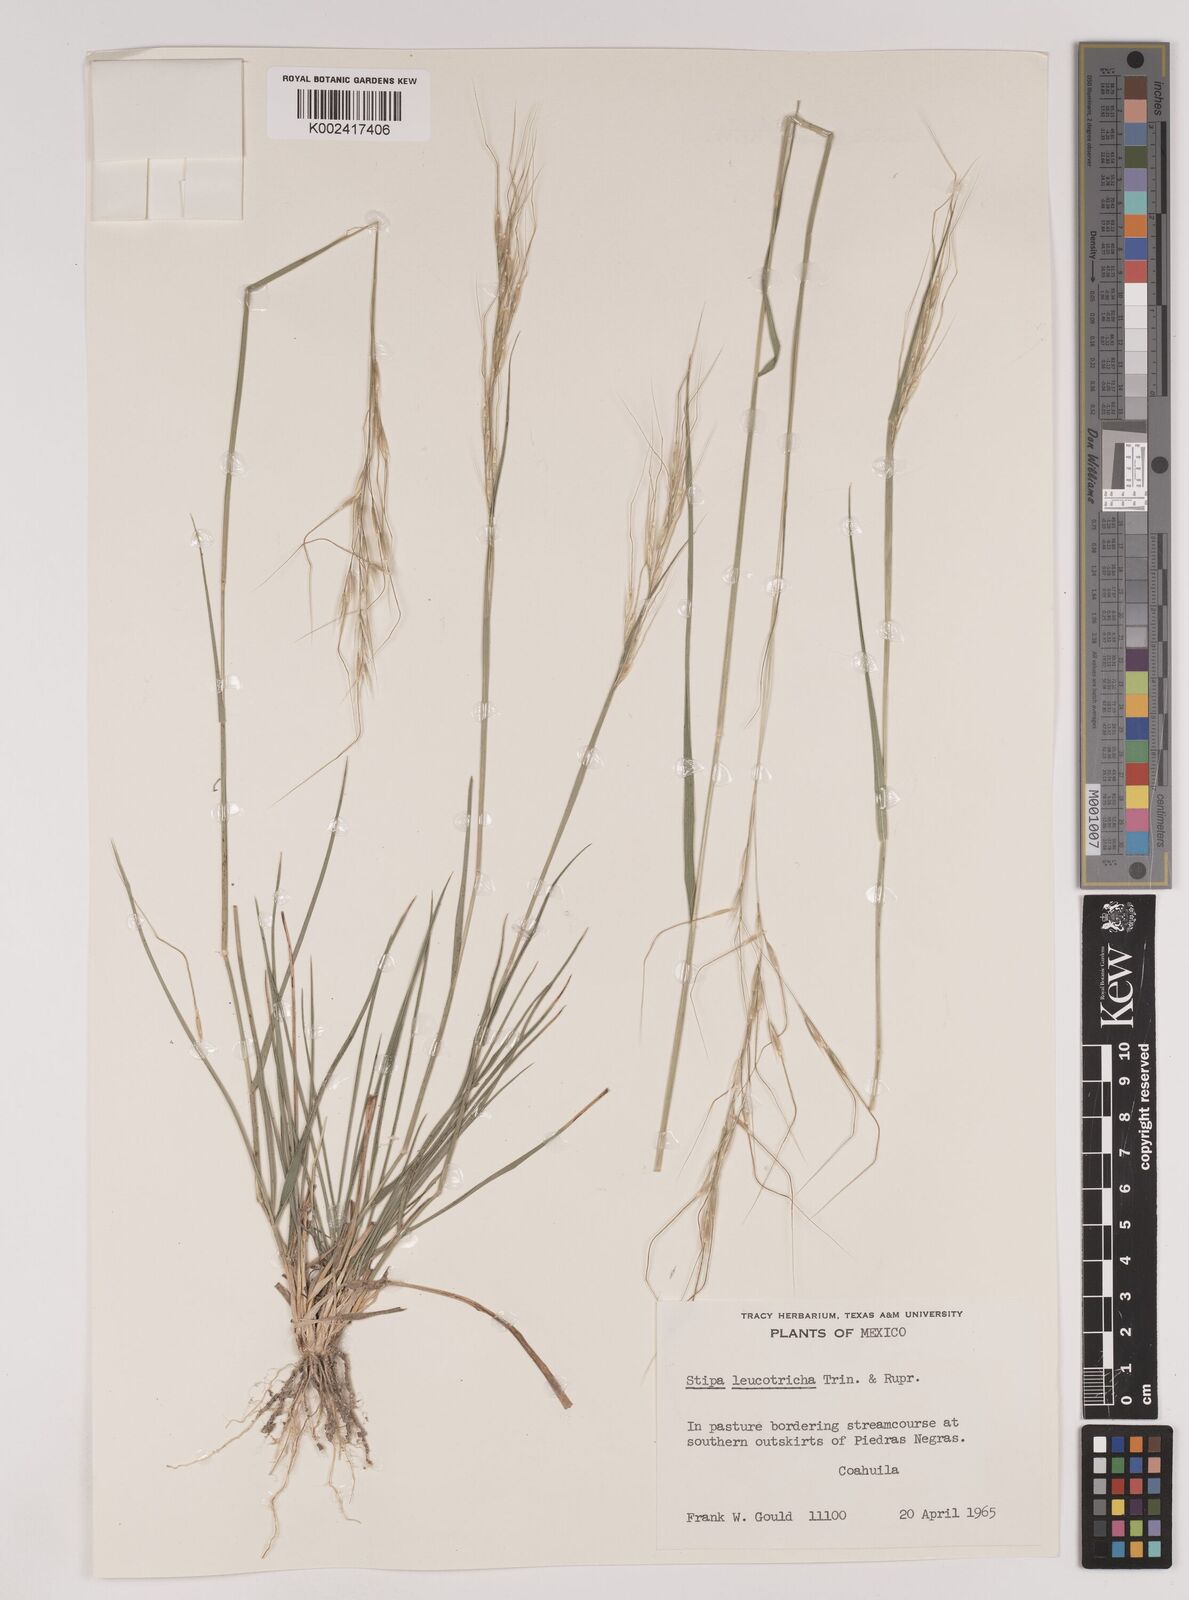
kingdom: Plantae
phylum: Tracheophyta
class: Liliopsida
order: Poales
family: Poaceae
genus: Nassella
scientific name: Nassella leucotricha
